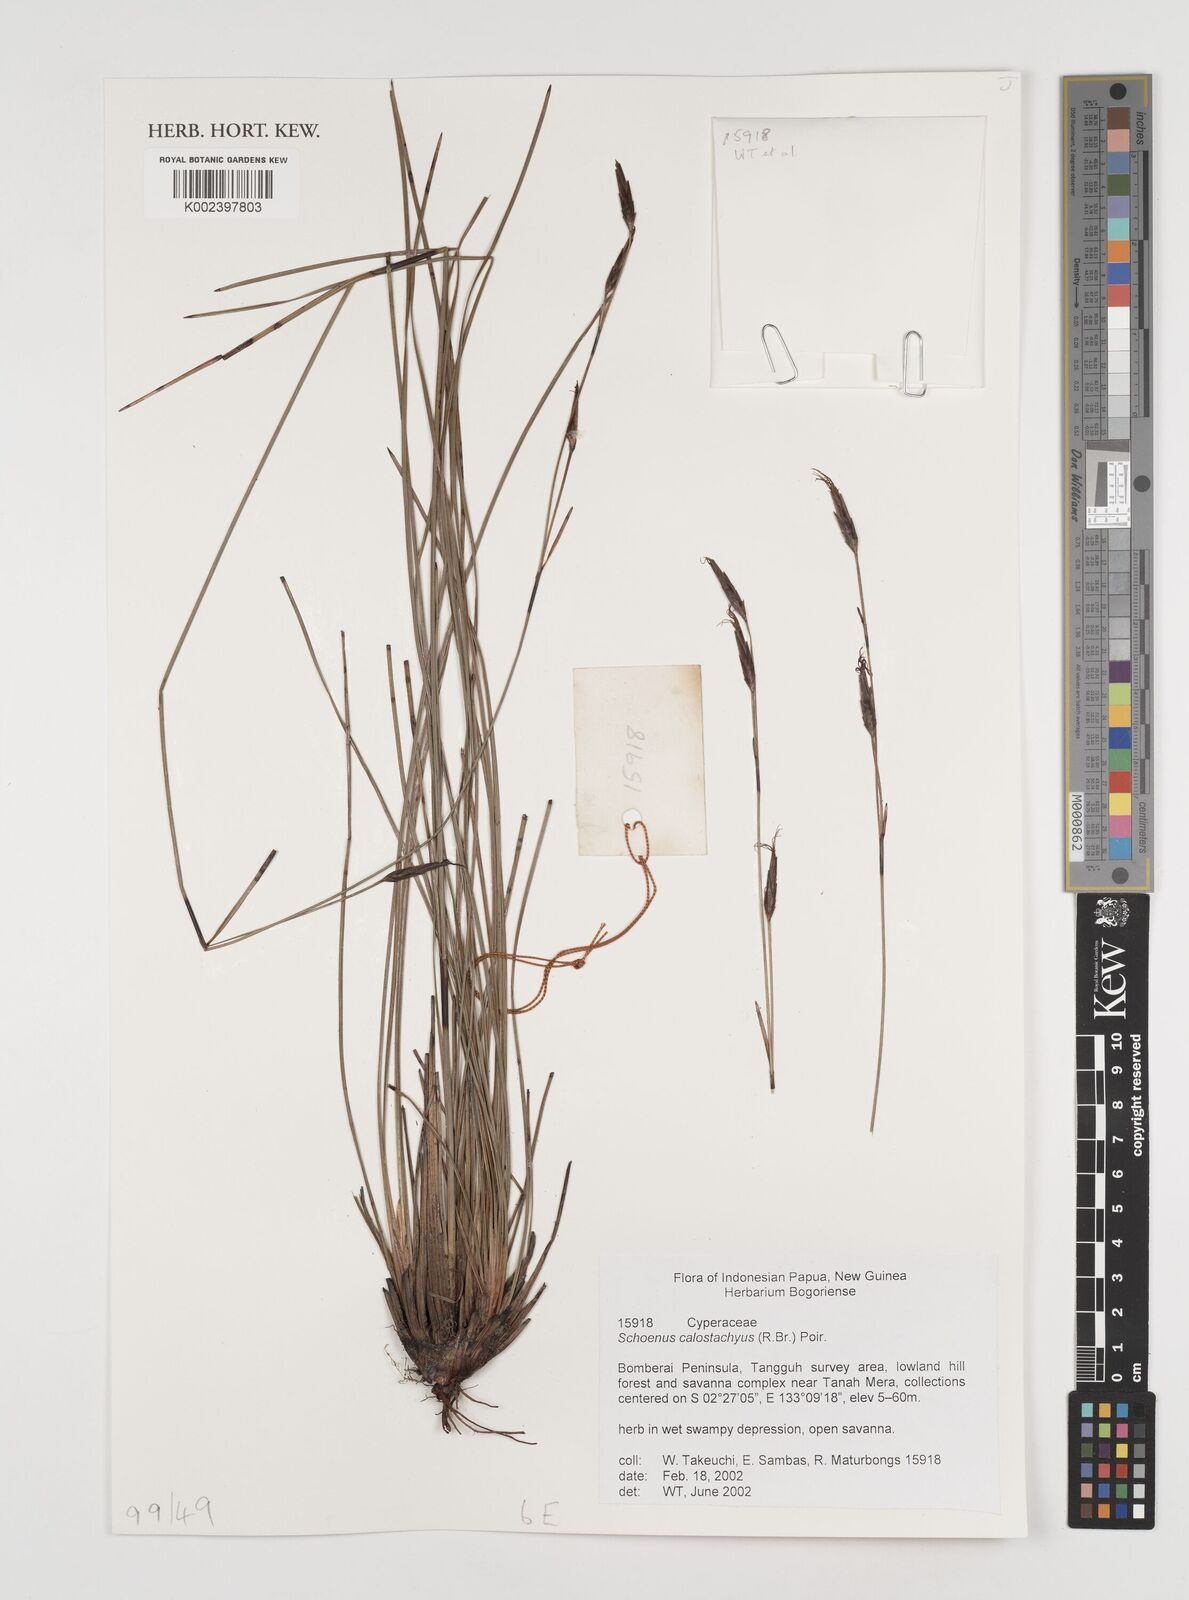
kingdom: Plantae
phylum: Tracheophyta
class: Liliopsida
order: Poales
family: Cyperaceae
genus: Schoenus
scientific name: Schoenus calostachyus
